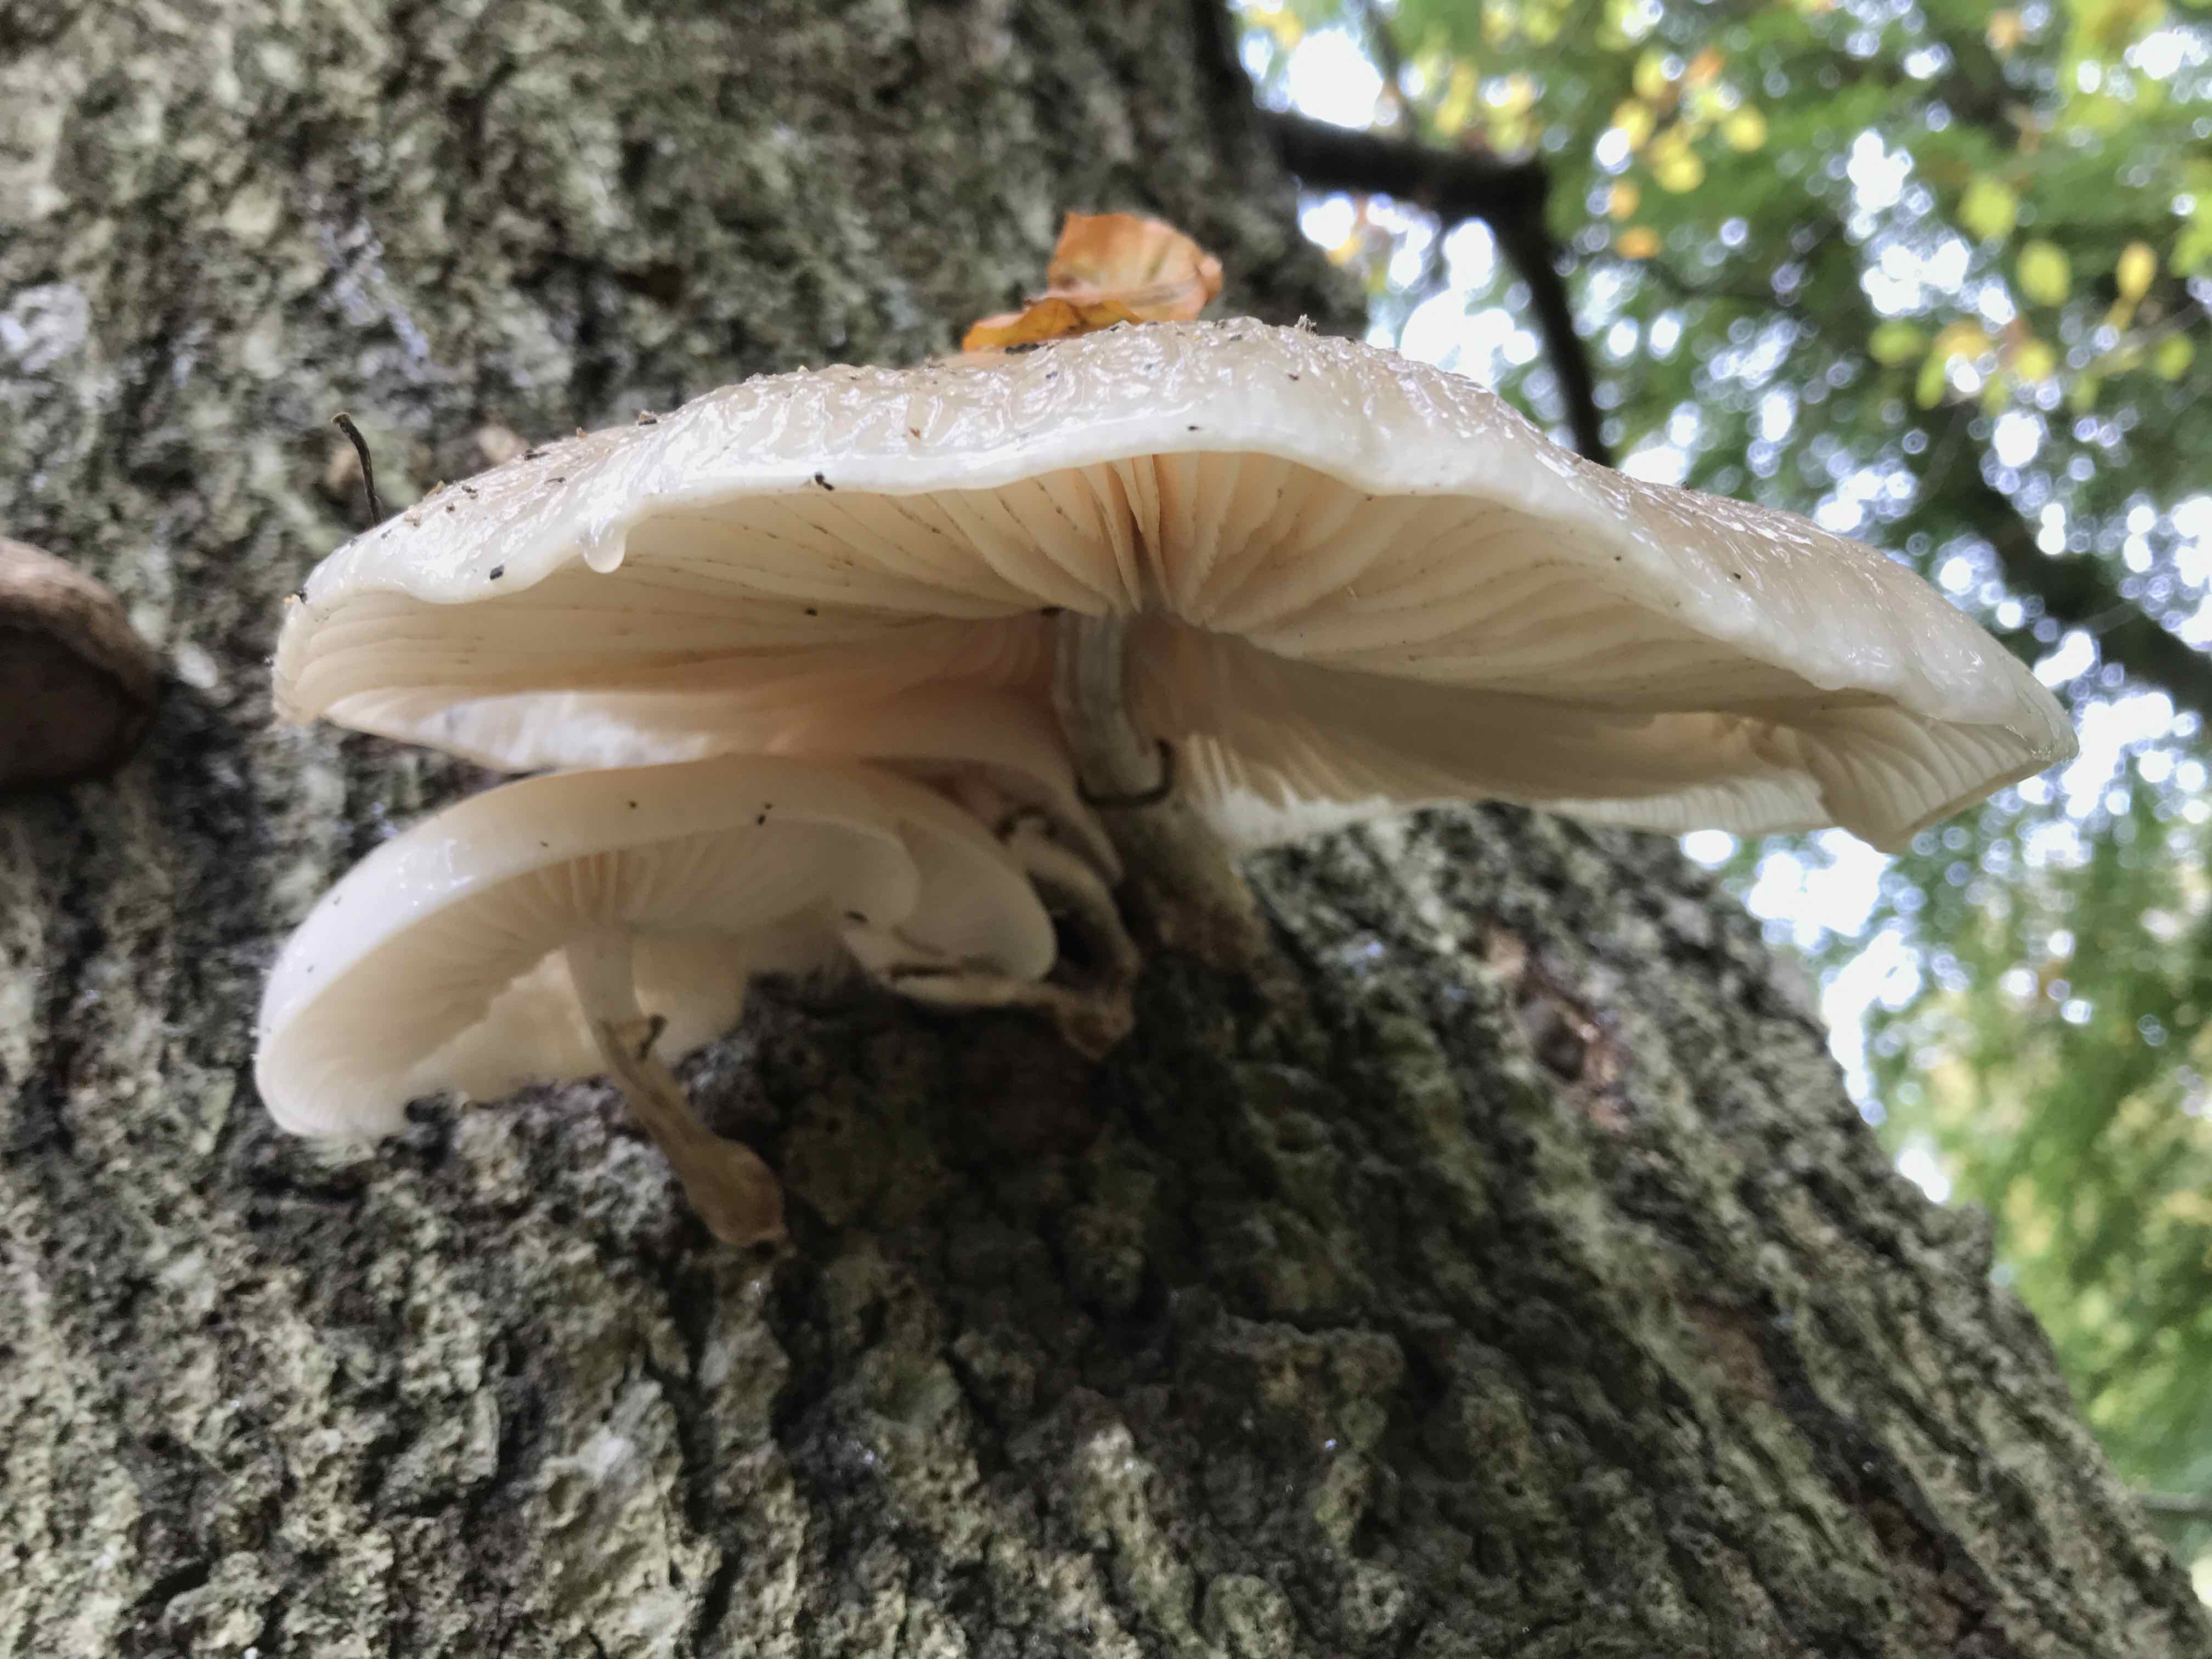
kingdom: Fungi
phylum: Basidiomycota
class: Agaricomycetes
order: Agaricales
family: Physalacriaceae
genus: Mucidula
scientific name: Mucidula mucida
